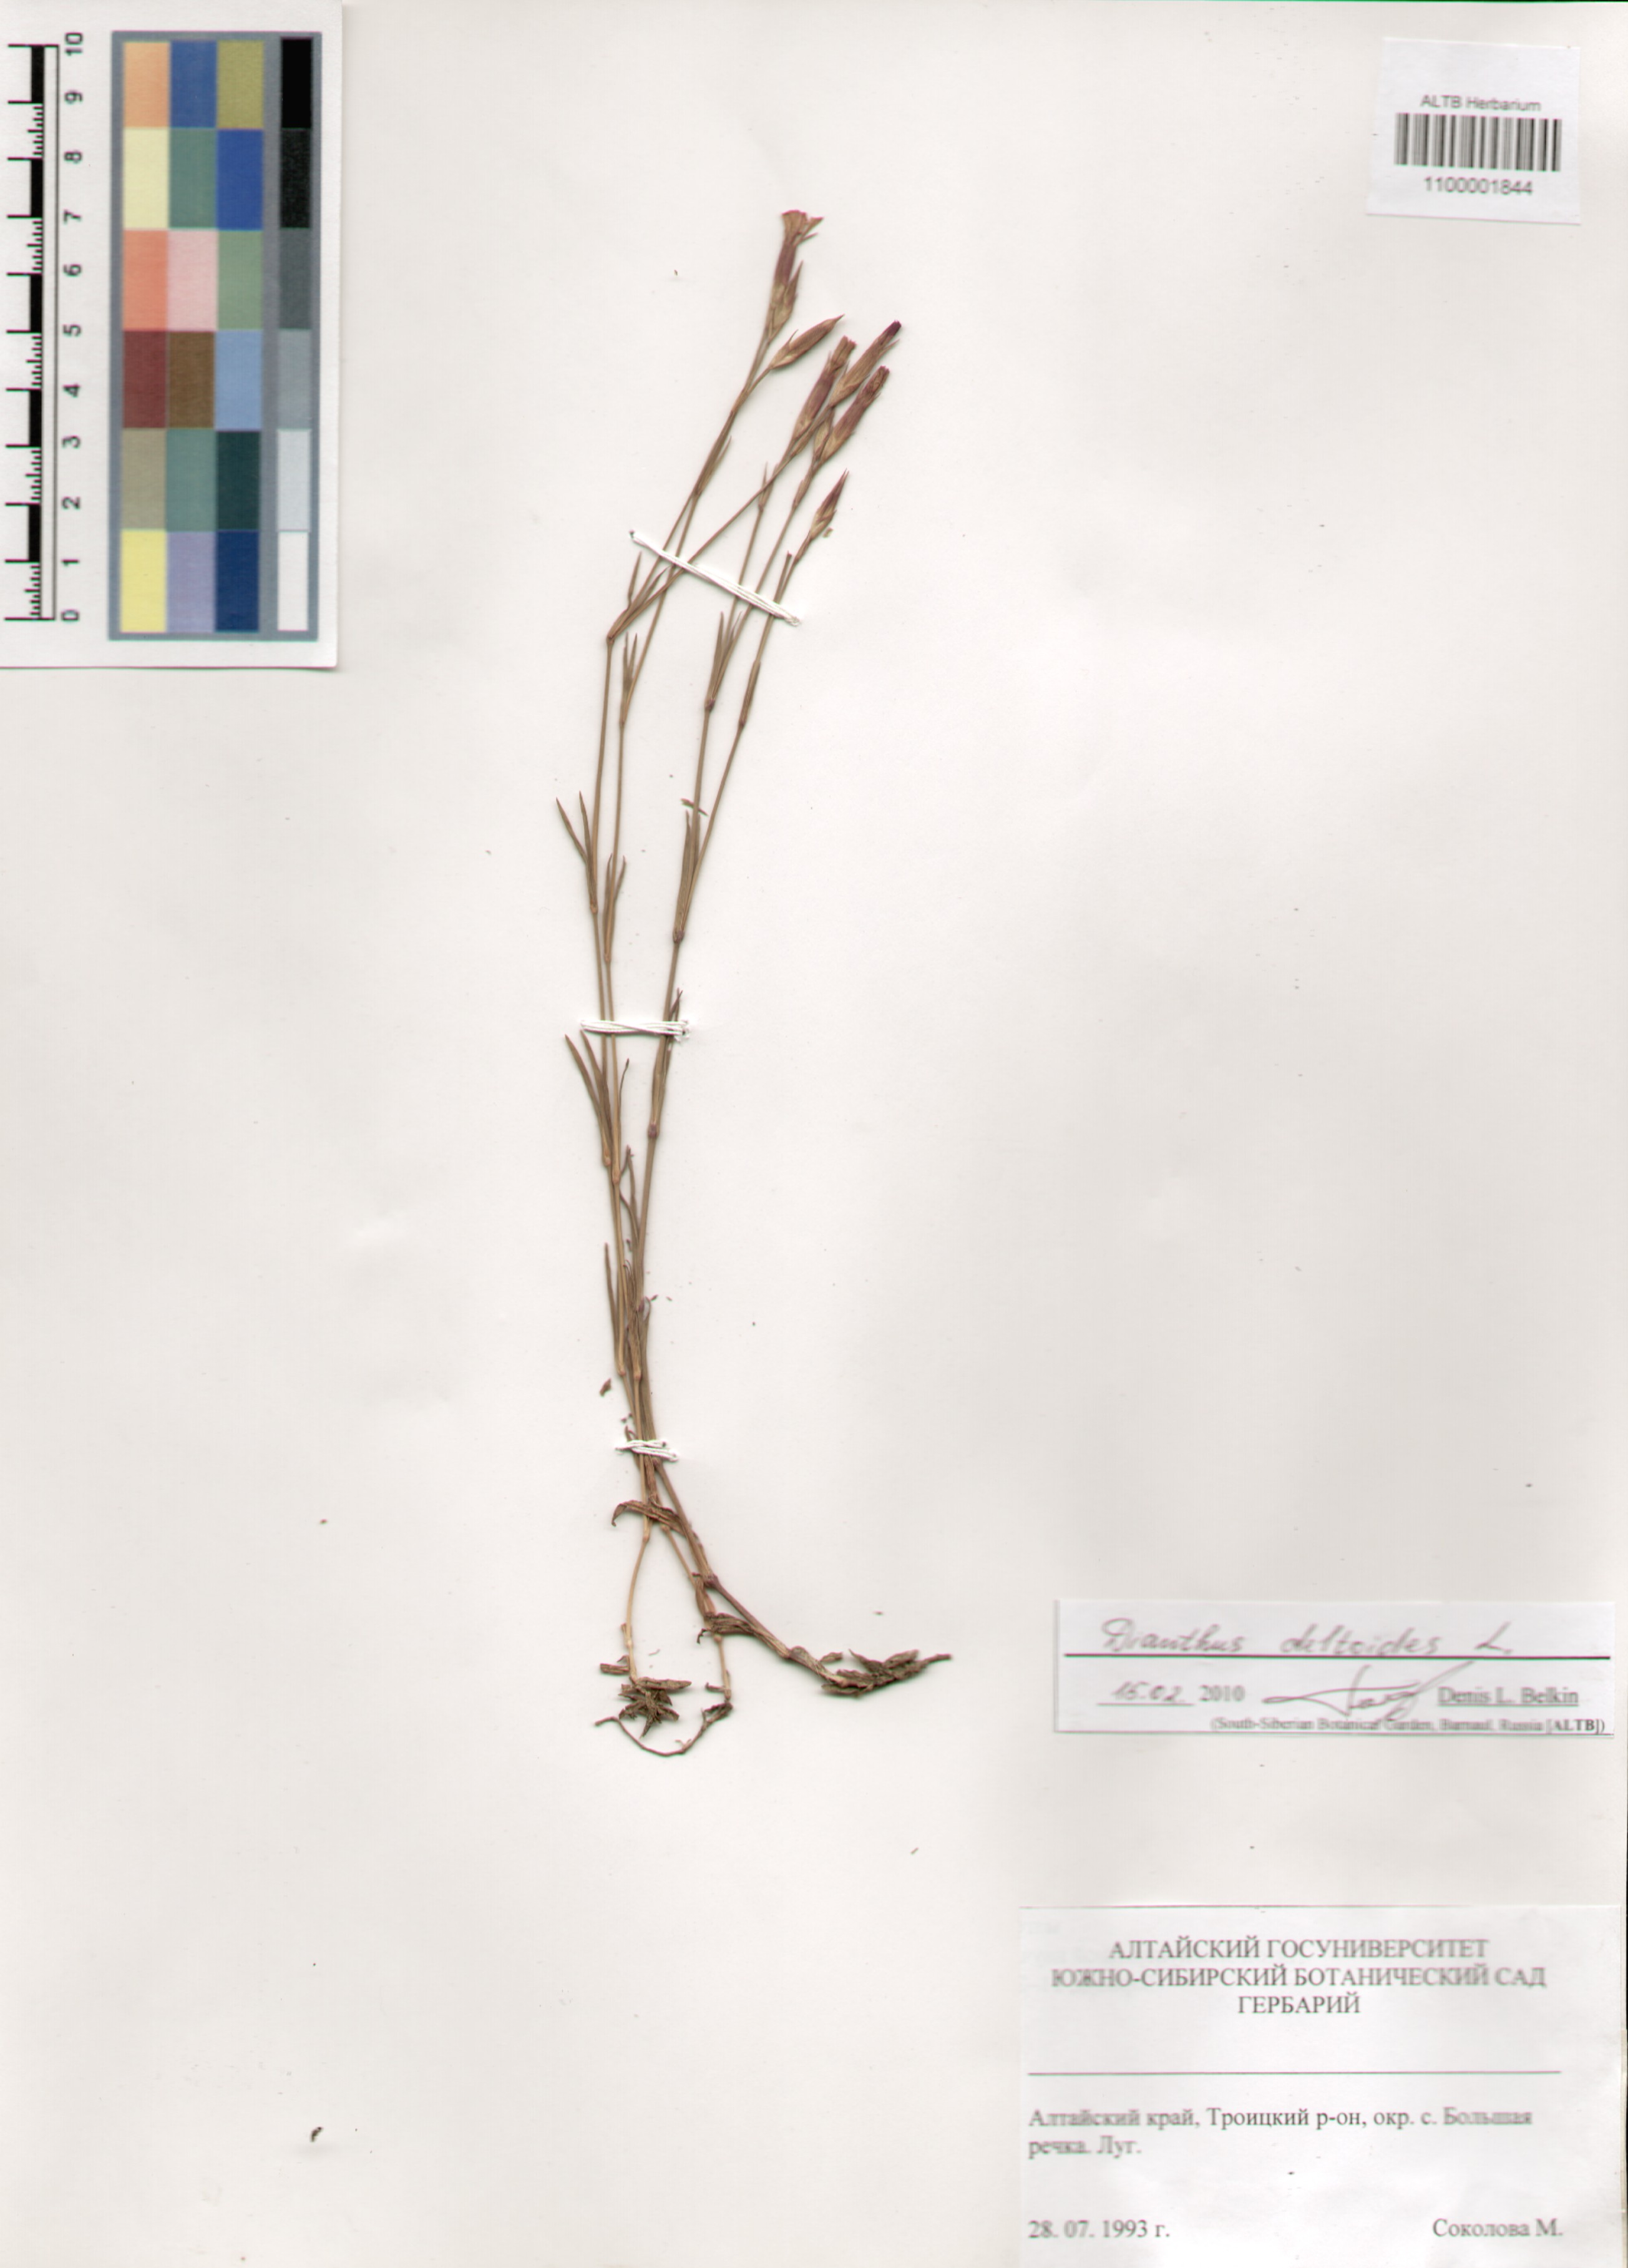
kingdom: Plantae
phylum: Tracheophyta
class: Magnoliopsida
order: Caryophyllales
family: Caryophyllaceae
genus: Dianthus
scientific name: Dianthus deltoides
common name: Maiden pink
